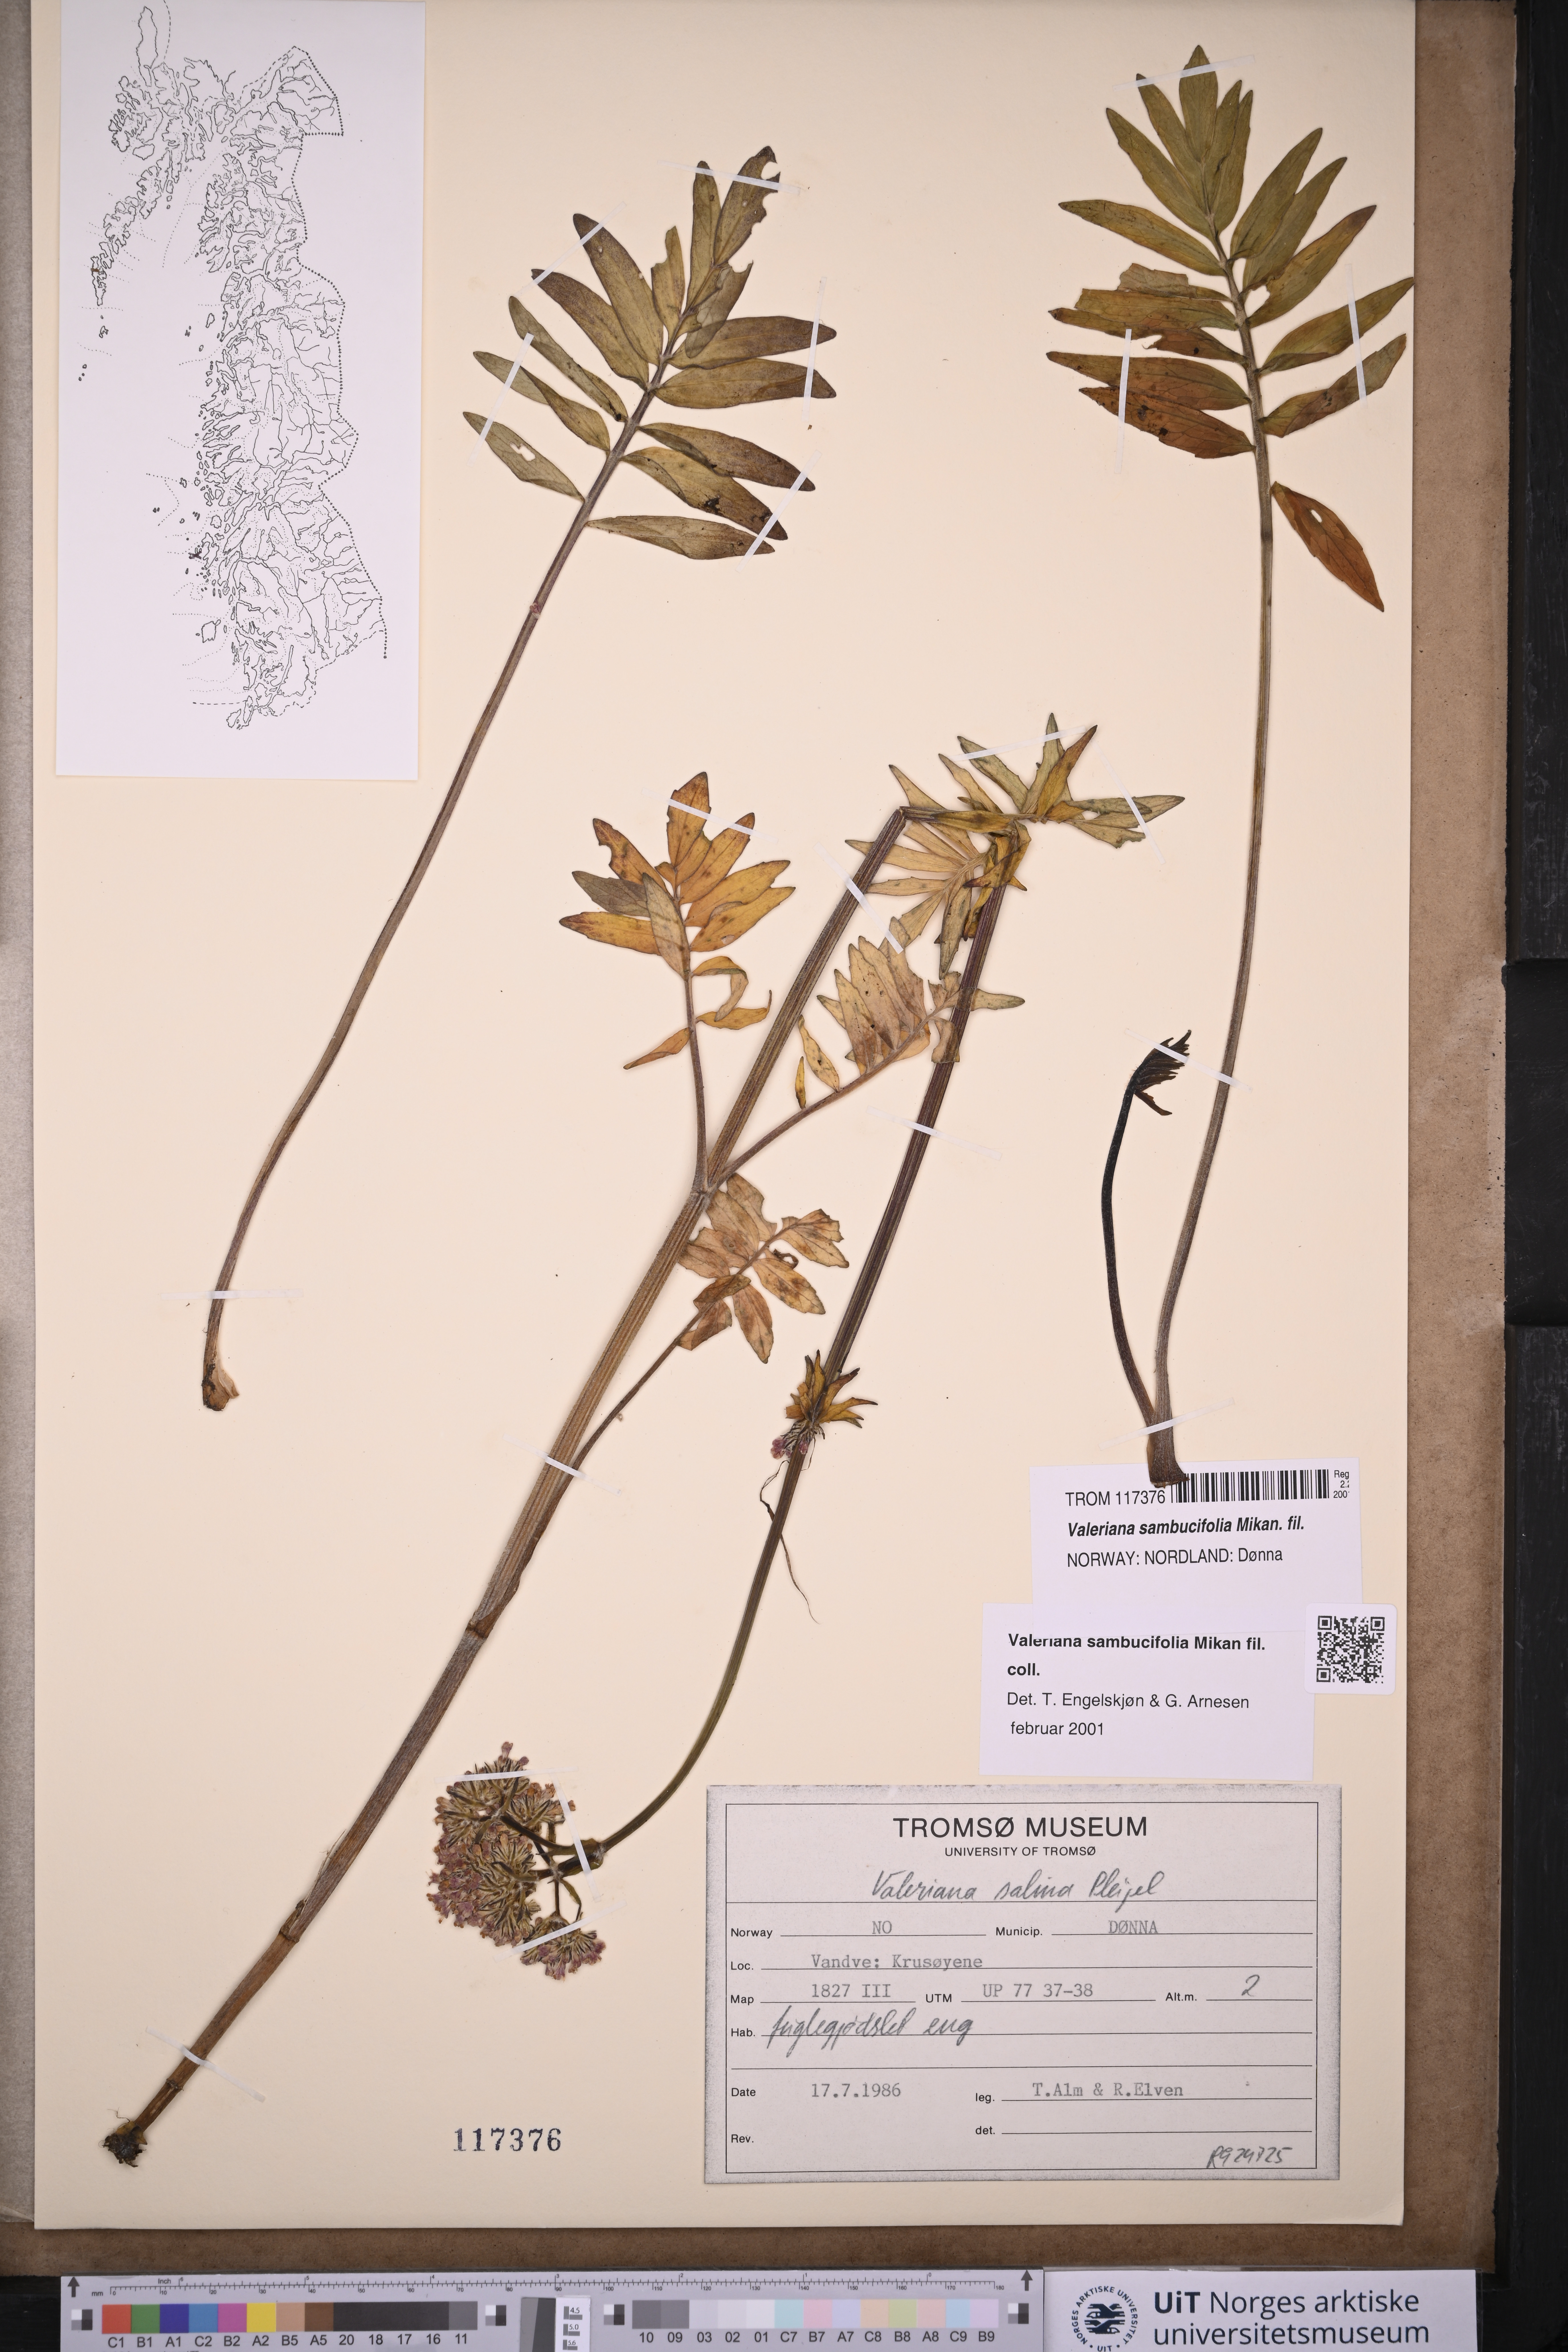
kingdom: Plantae
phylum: Tracheophyta
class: Magnoliopsida
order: Dipsacales
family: Caprifoliaceae
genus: Valeriana
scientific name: Valeriana excelsa
